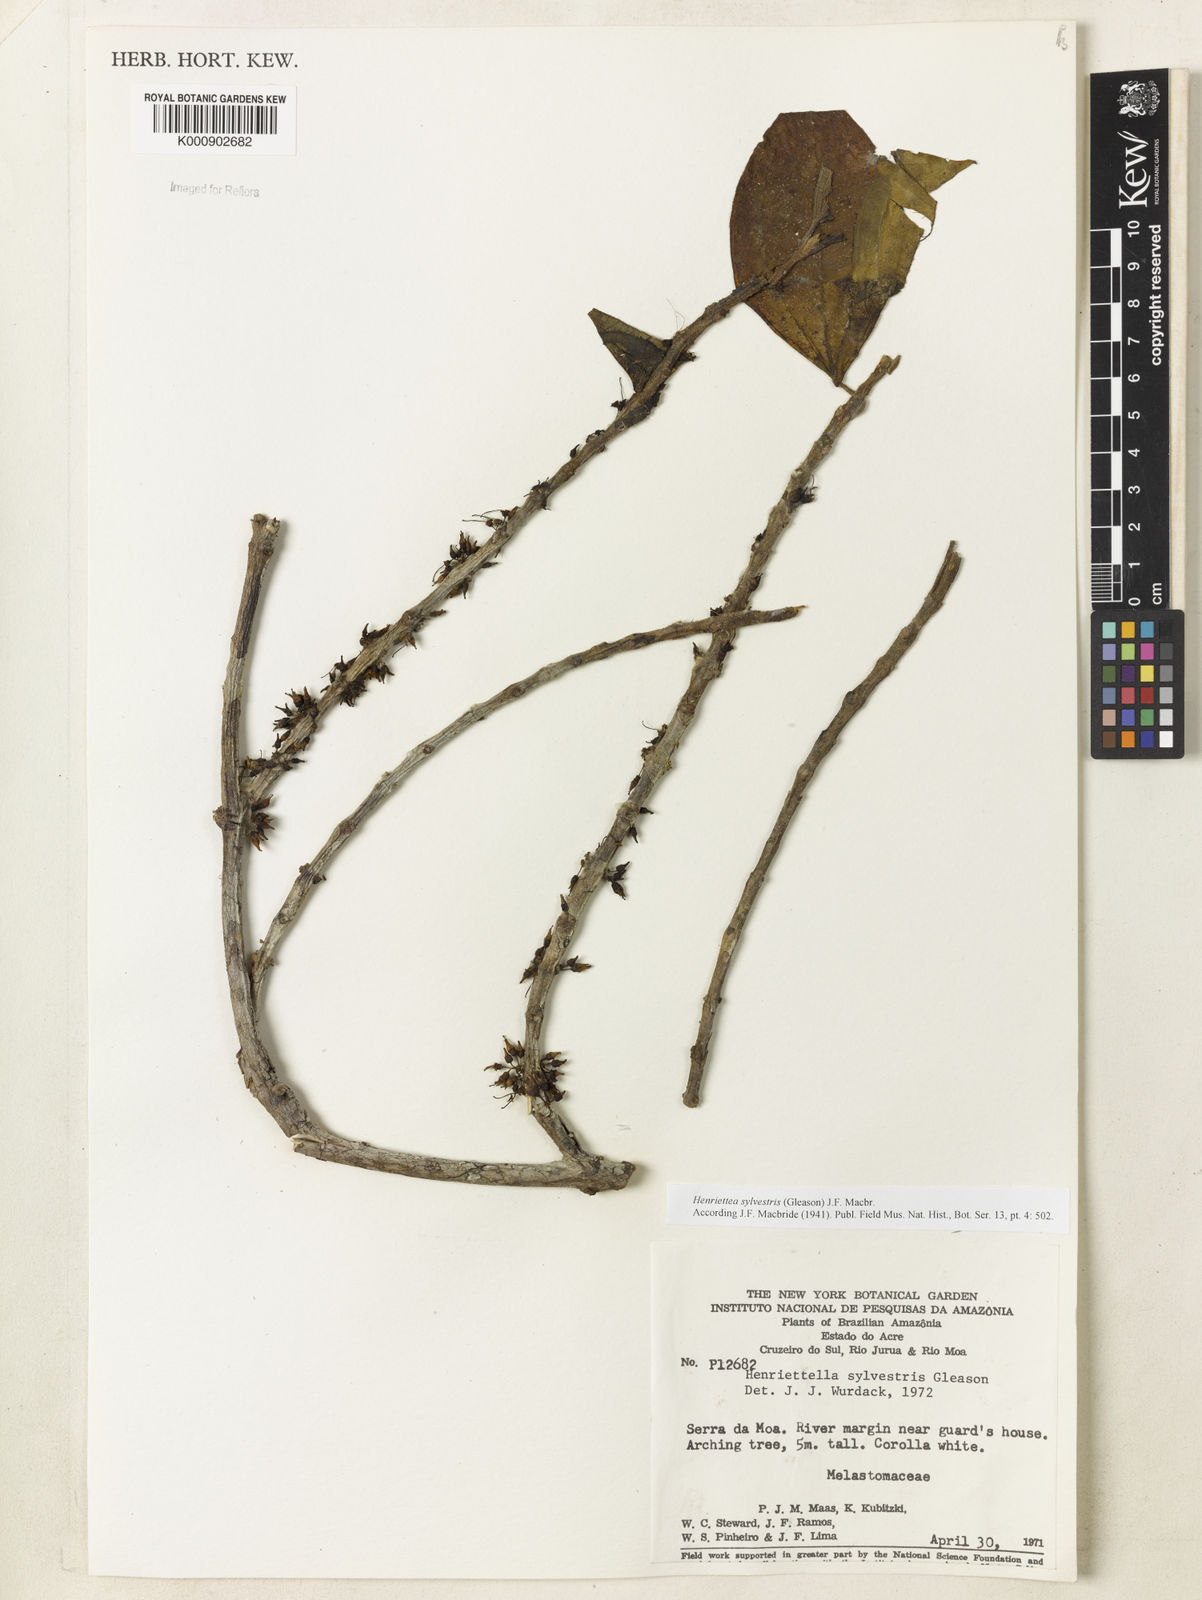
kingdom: Plantae
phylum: Tracheophyta
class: Magnoliopsida
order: Myrtales
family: Melastomataceae
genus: Henriettea
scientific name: Henriettea sylvestris
